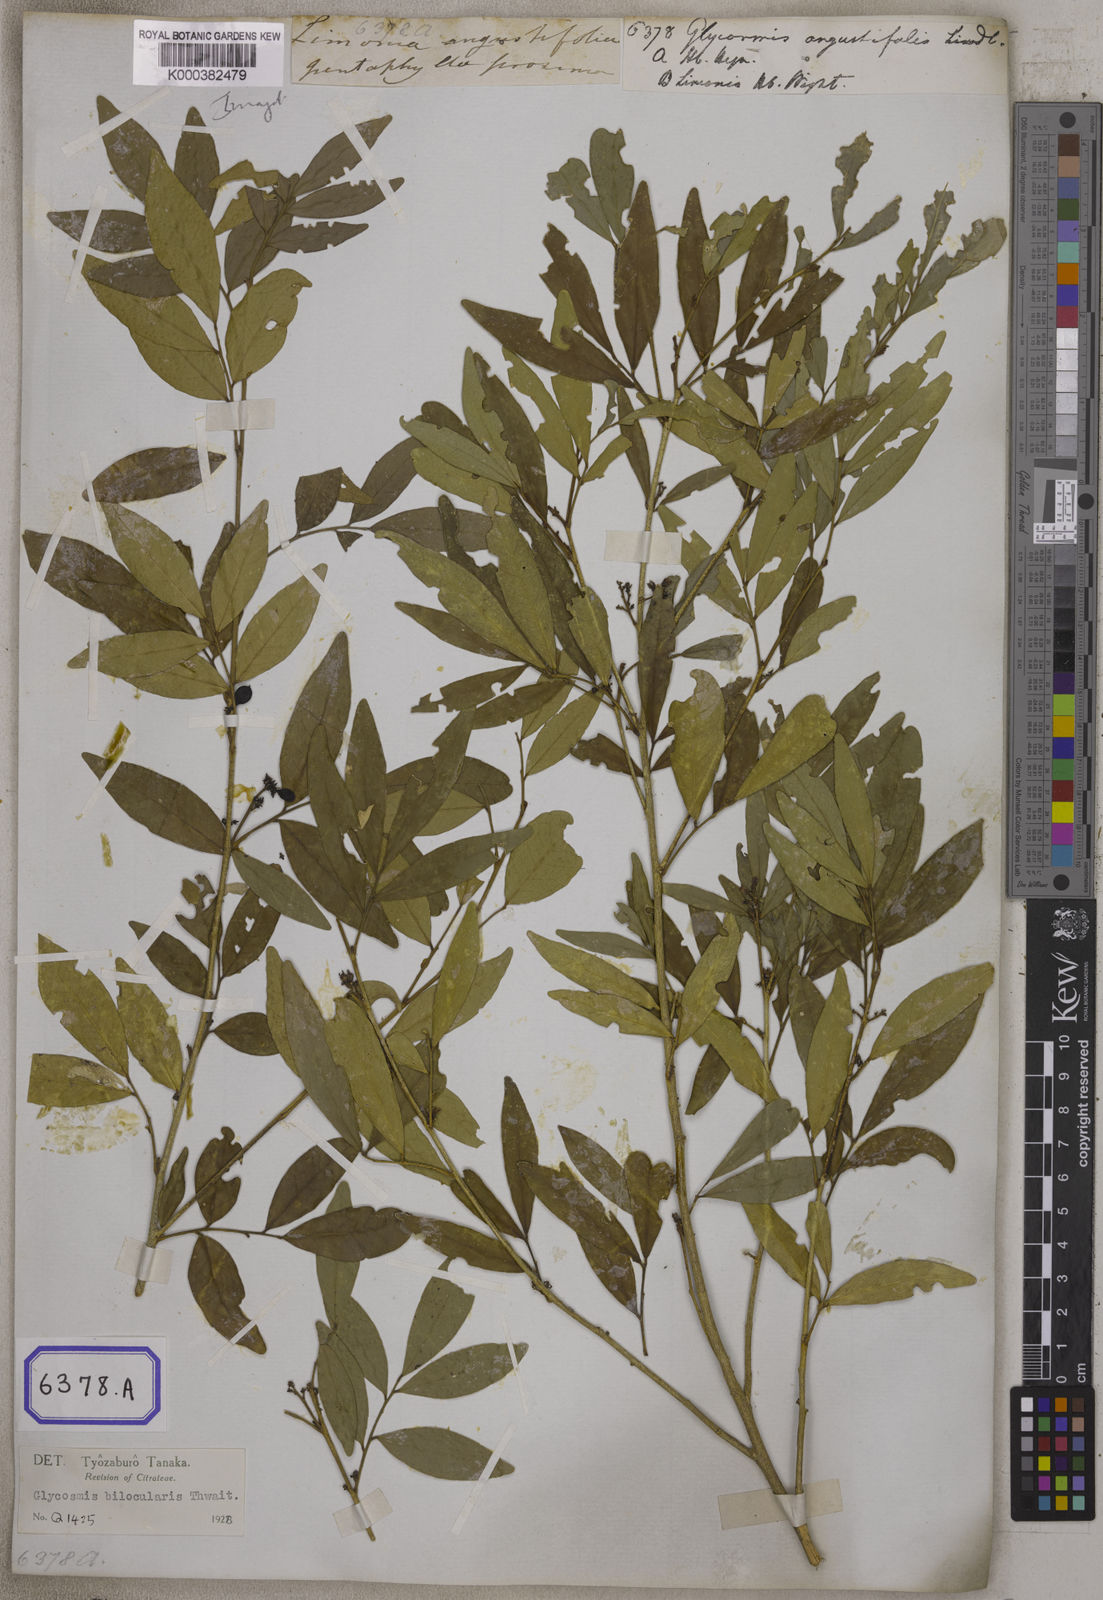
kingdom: Plantae
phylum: Tracheophyta
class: Magnoliopsida
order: Sapindales
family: Rutaceae
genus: Glycosmis
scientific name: Glycosmis angustifolia
